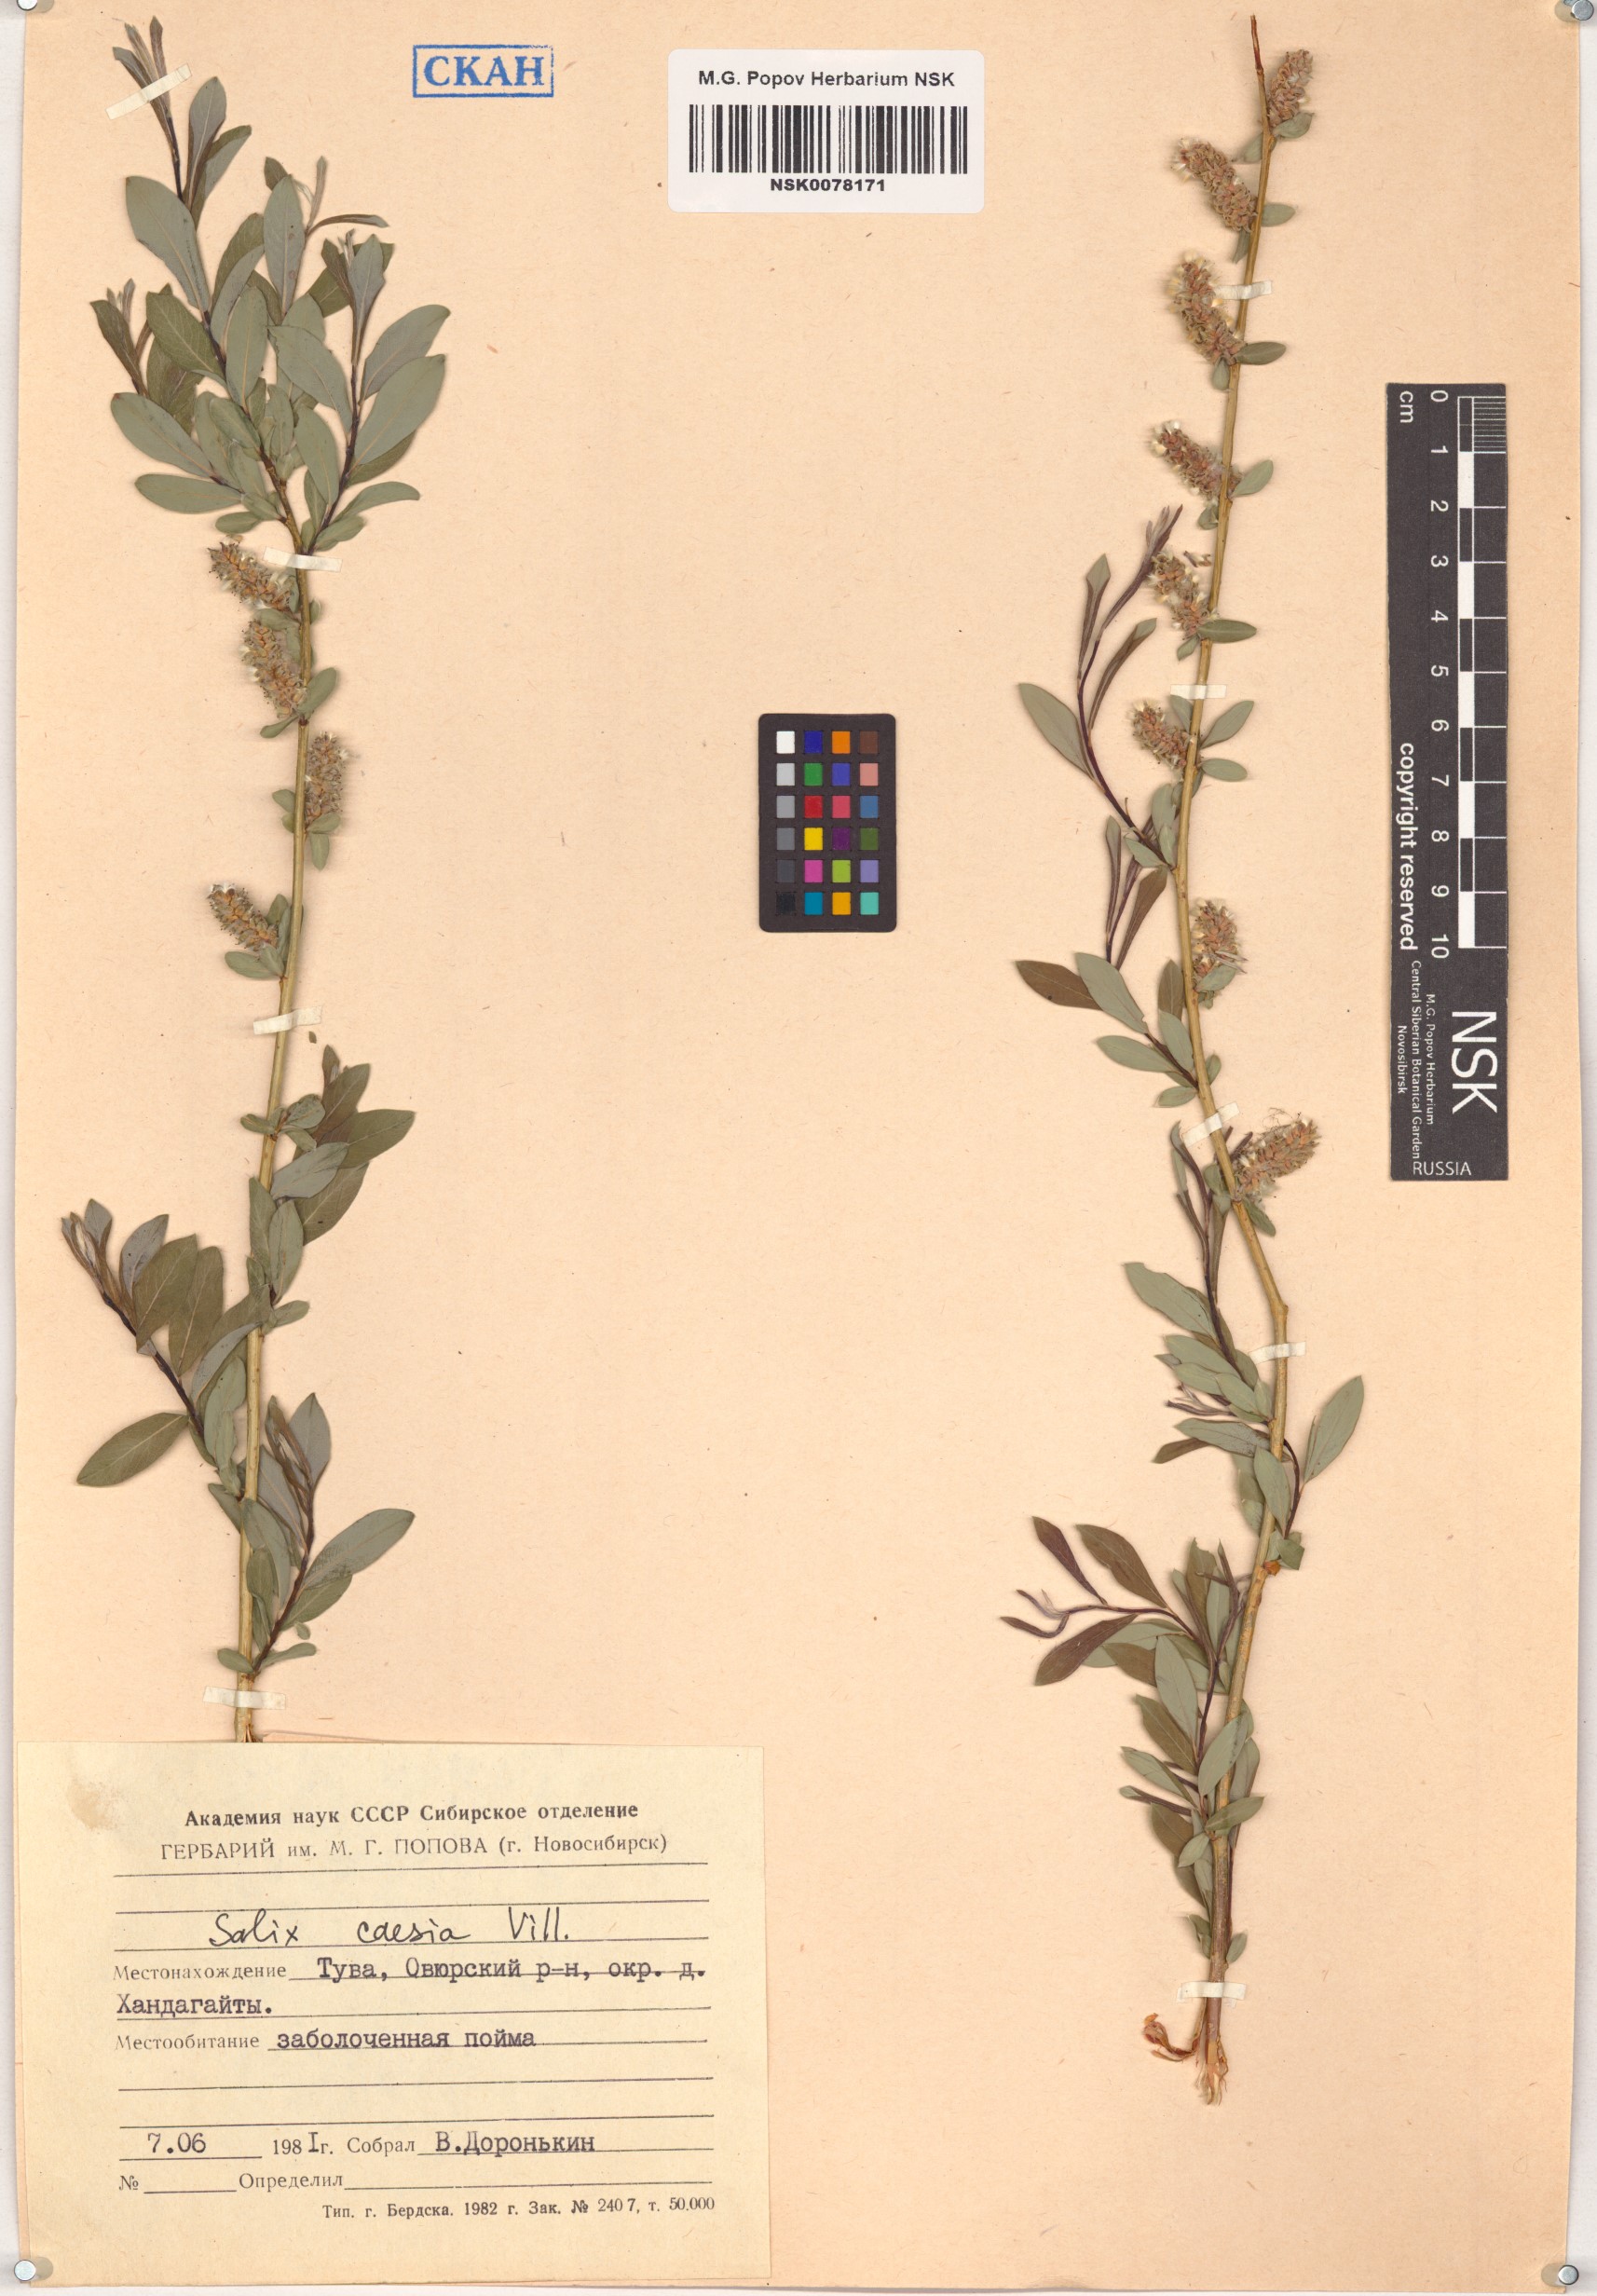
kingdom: Plantae
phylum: Tracheophyta
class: Magnoliopsida
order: Malpighiales
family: Salicaceae
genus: Salix
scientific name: Salix caesia
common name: Blue willow
